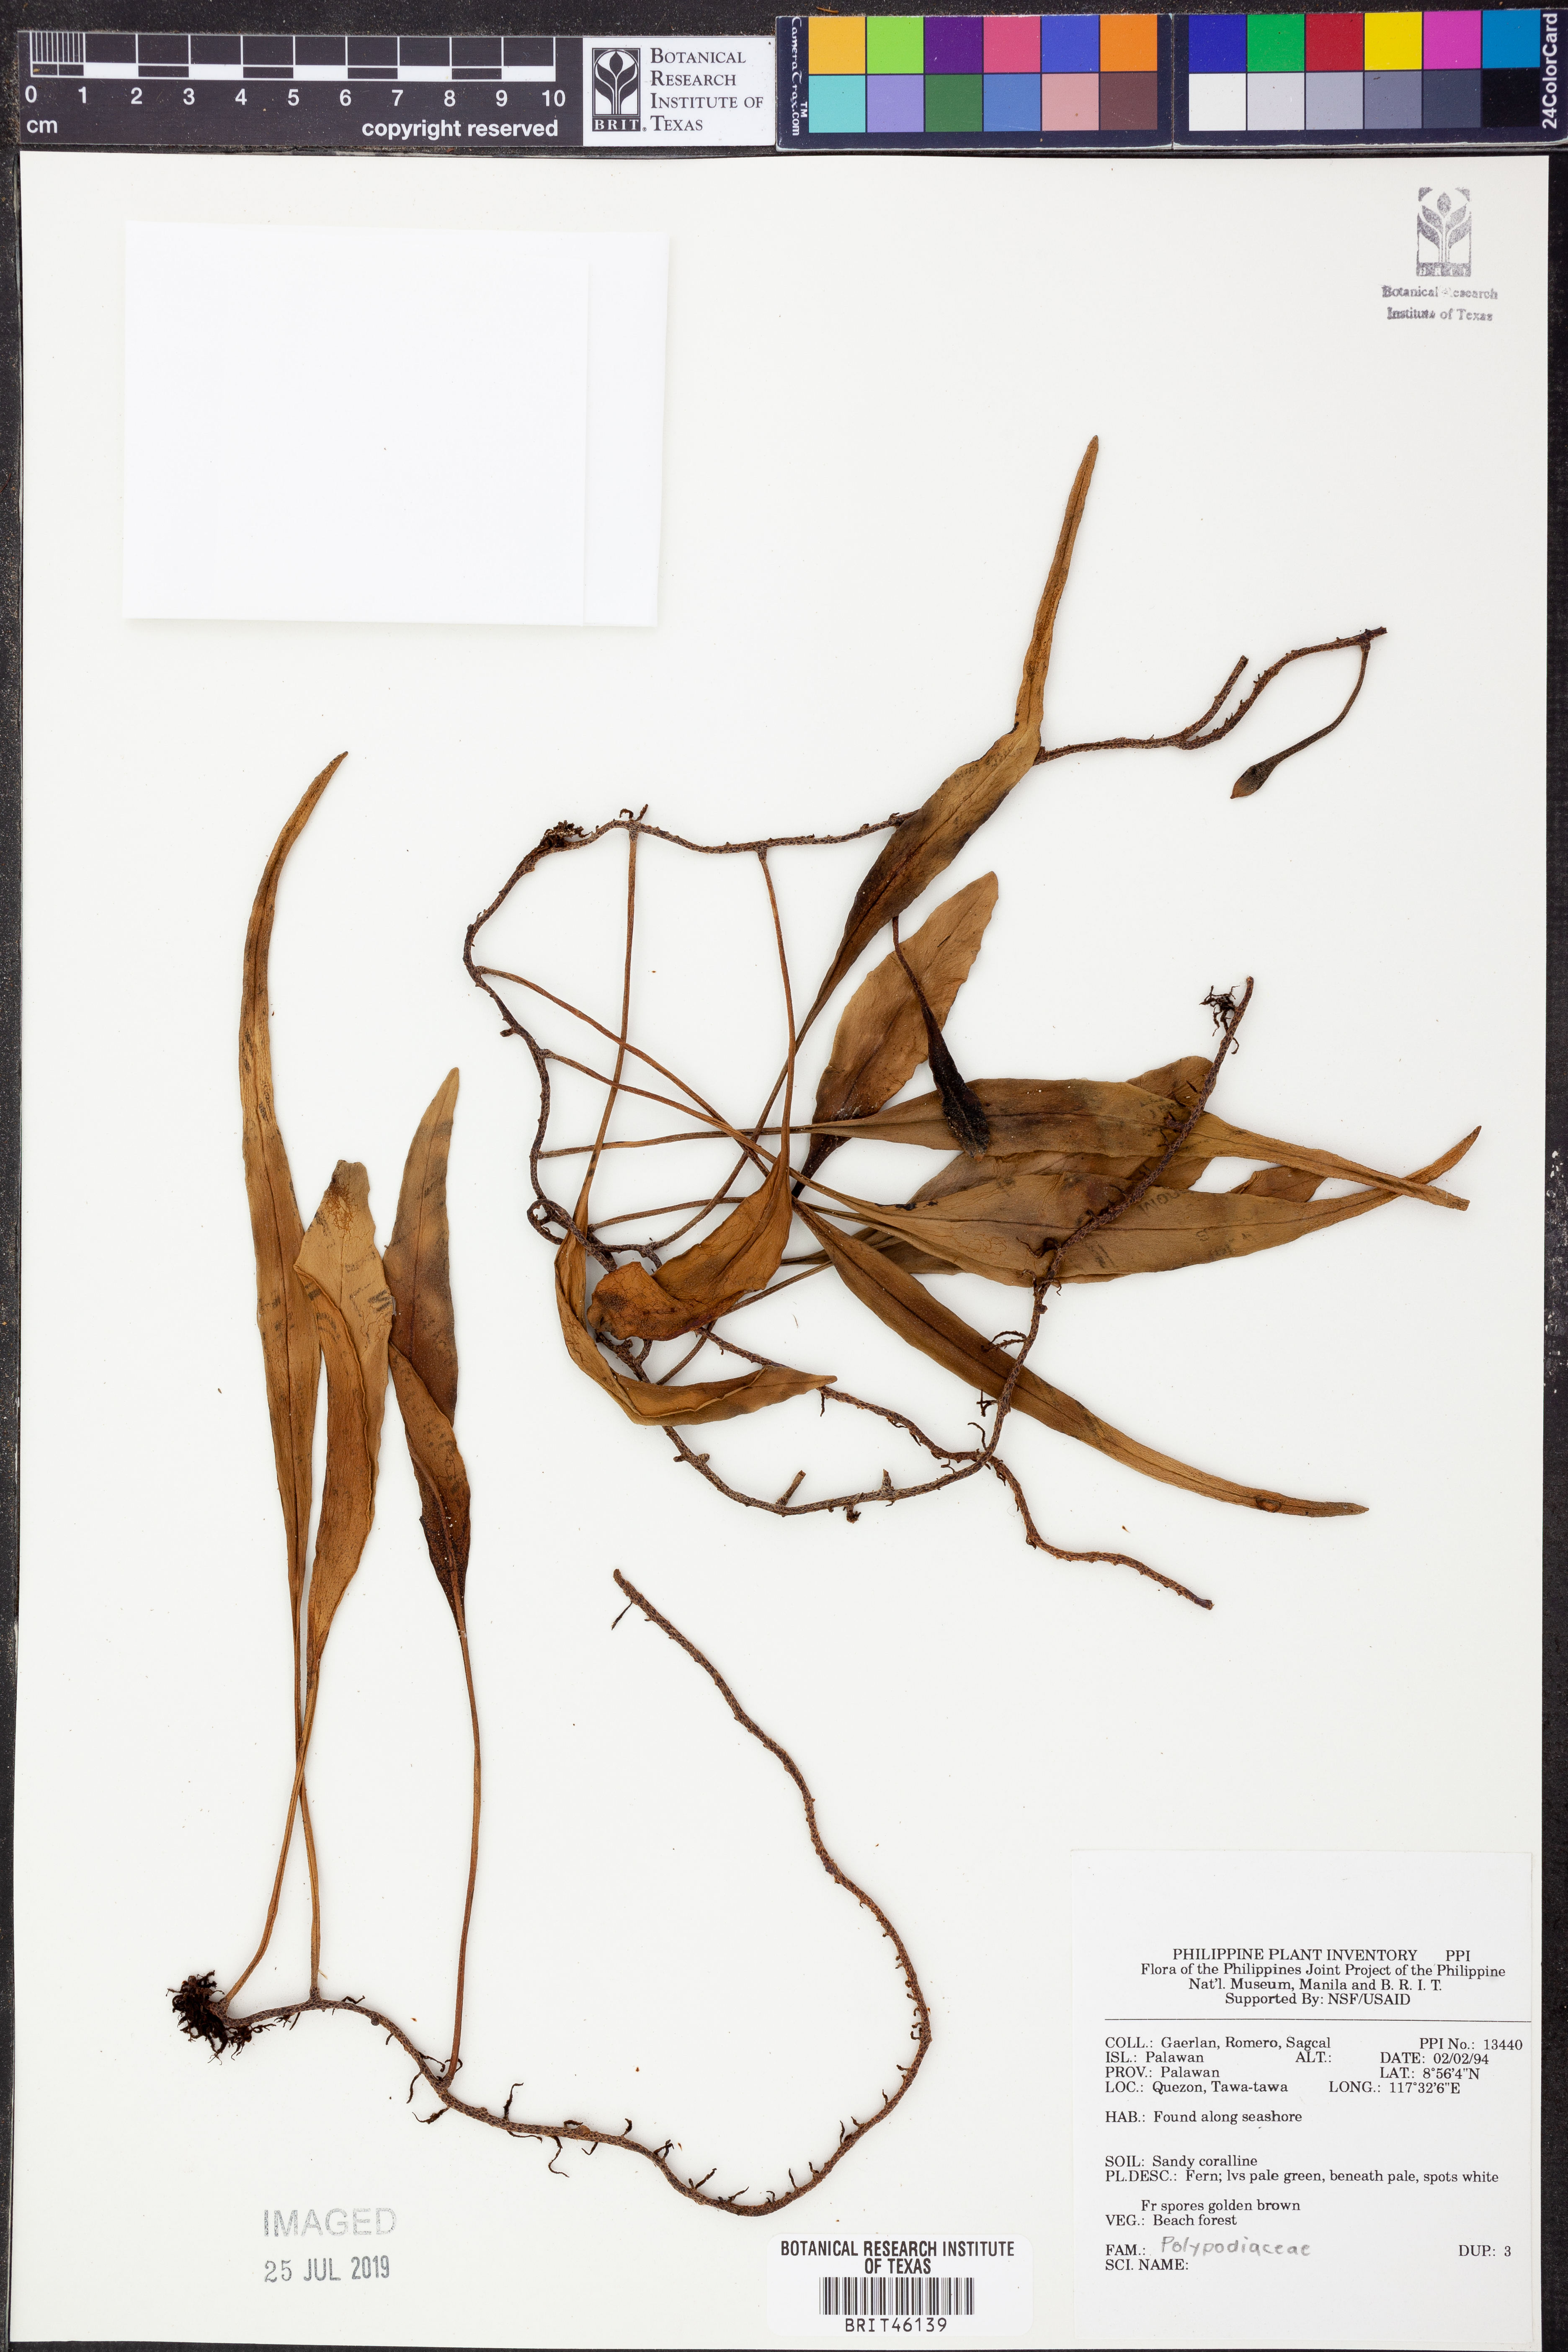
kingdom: Plantae
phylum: Tracheophyta
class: Polypodiopsida
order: Polypodiales
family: Polypodiaceae
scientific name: Polypodiaceae
